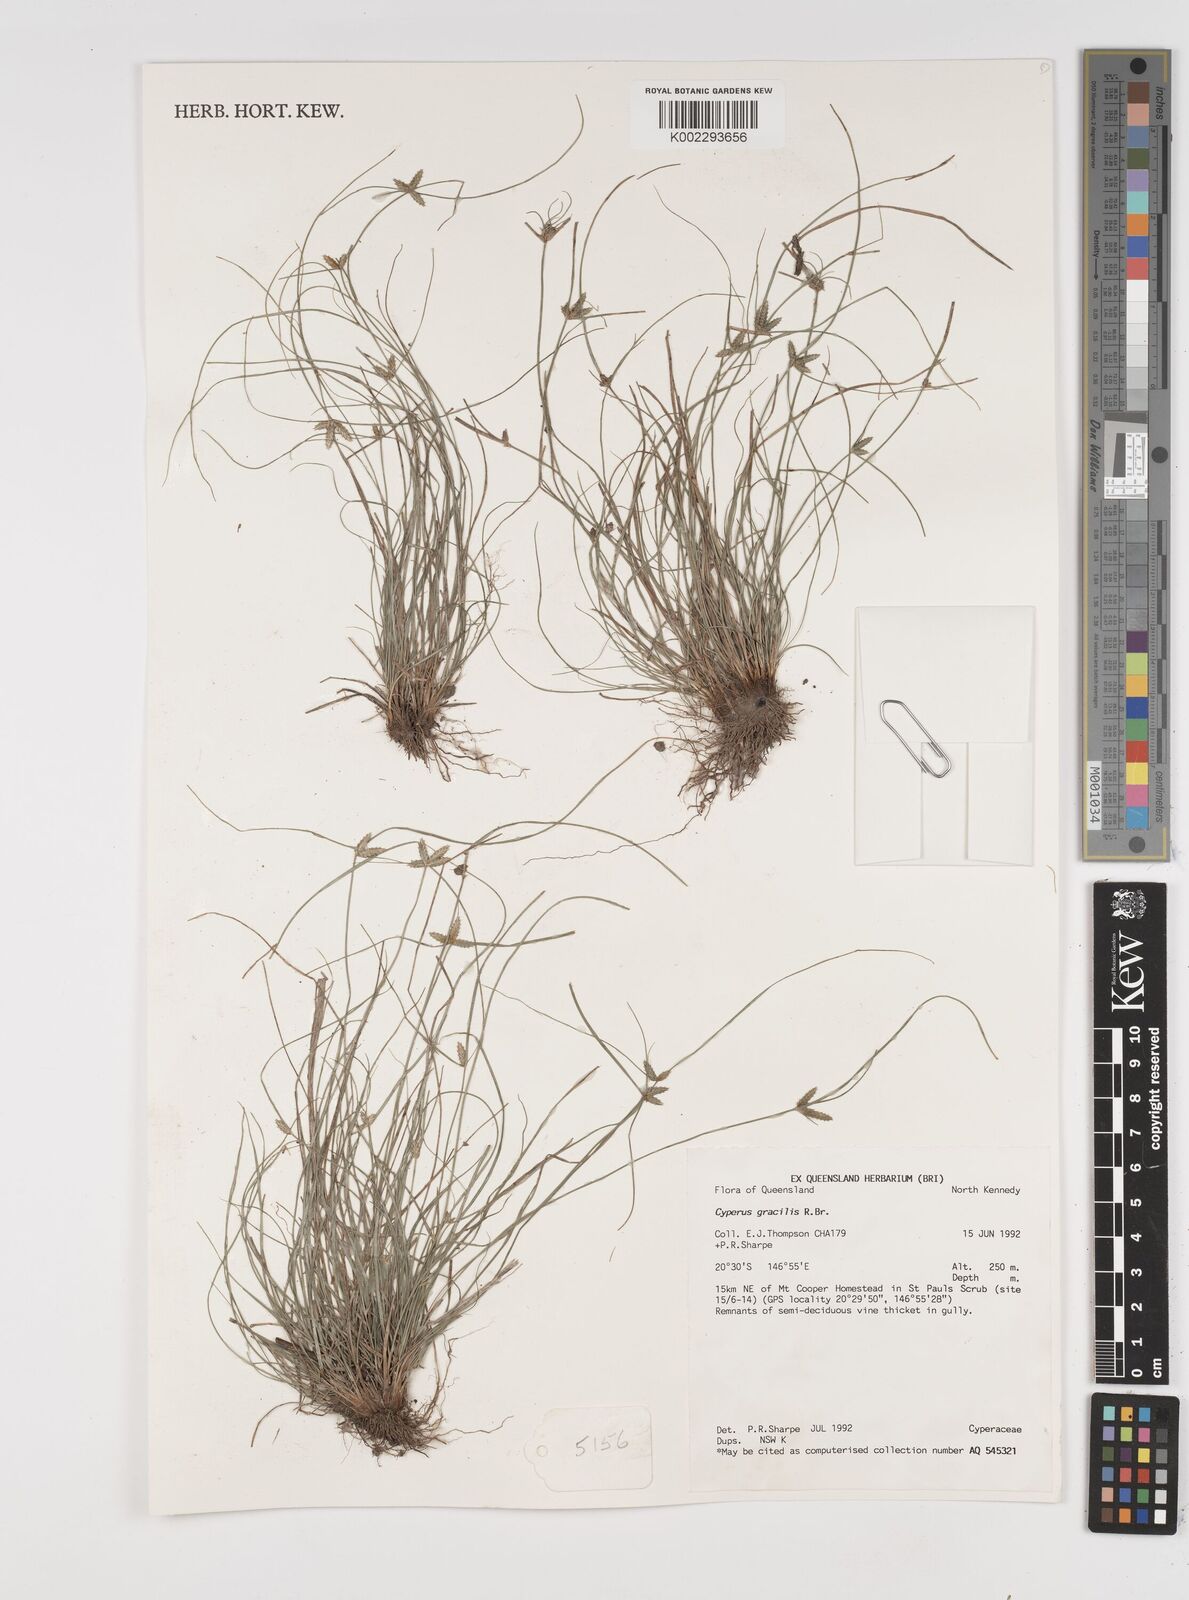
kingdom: Plantae
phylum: Tracheophyta
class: Liliopsida
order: Poales
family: Cyperaceae
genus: Cyperus
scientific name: Cyperus gracilis
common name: Slimjim flatsedge
